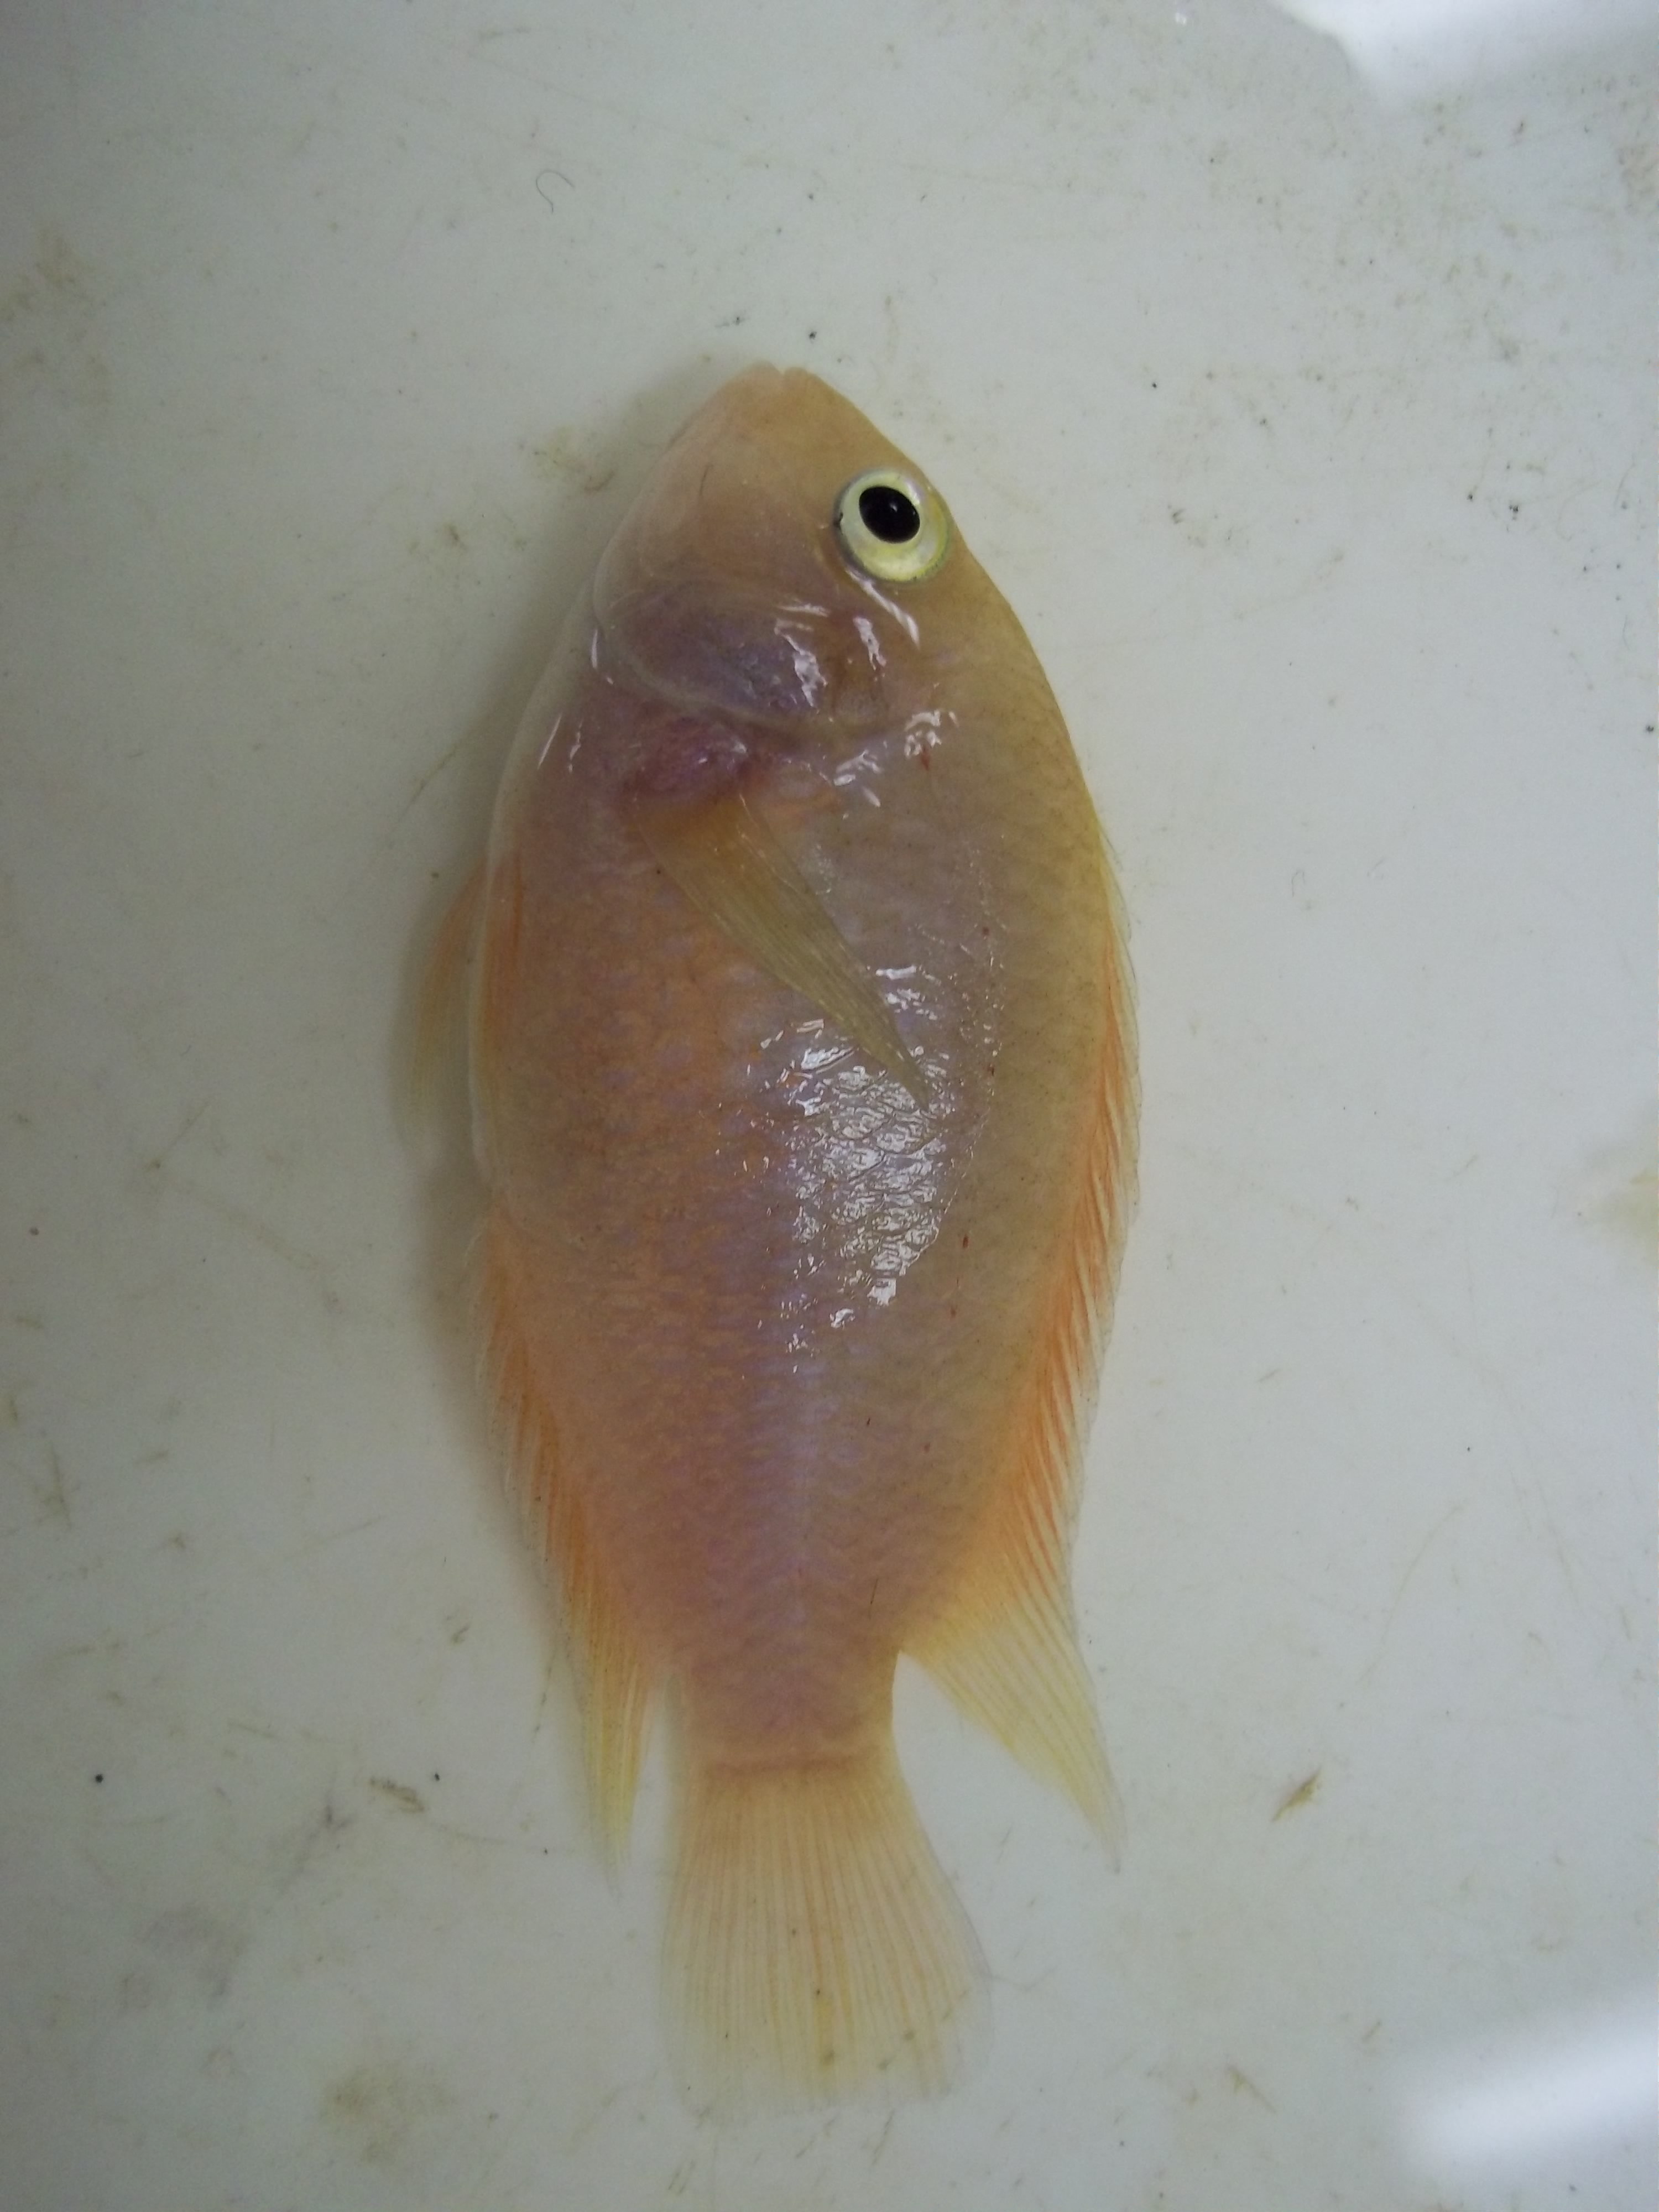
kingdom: Animalia
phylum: Chordata
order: Perciformes
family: Cichlidae
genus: Amatitlania
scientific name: Amatitlania nigrofasciata
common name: Convict cichlid
